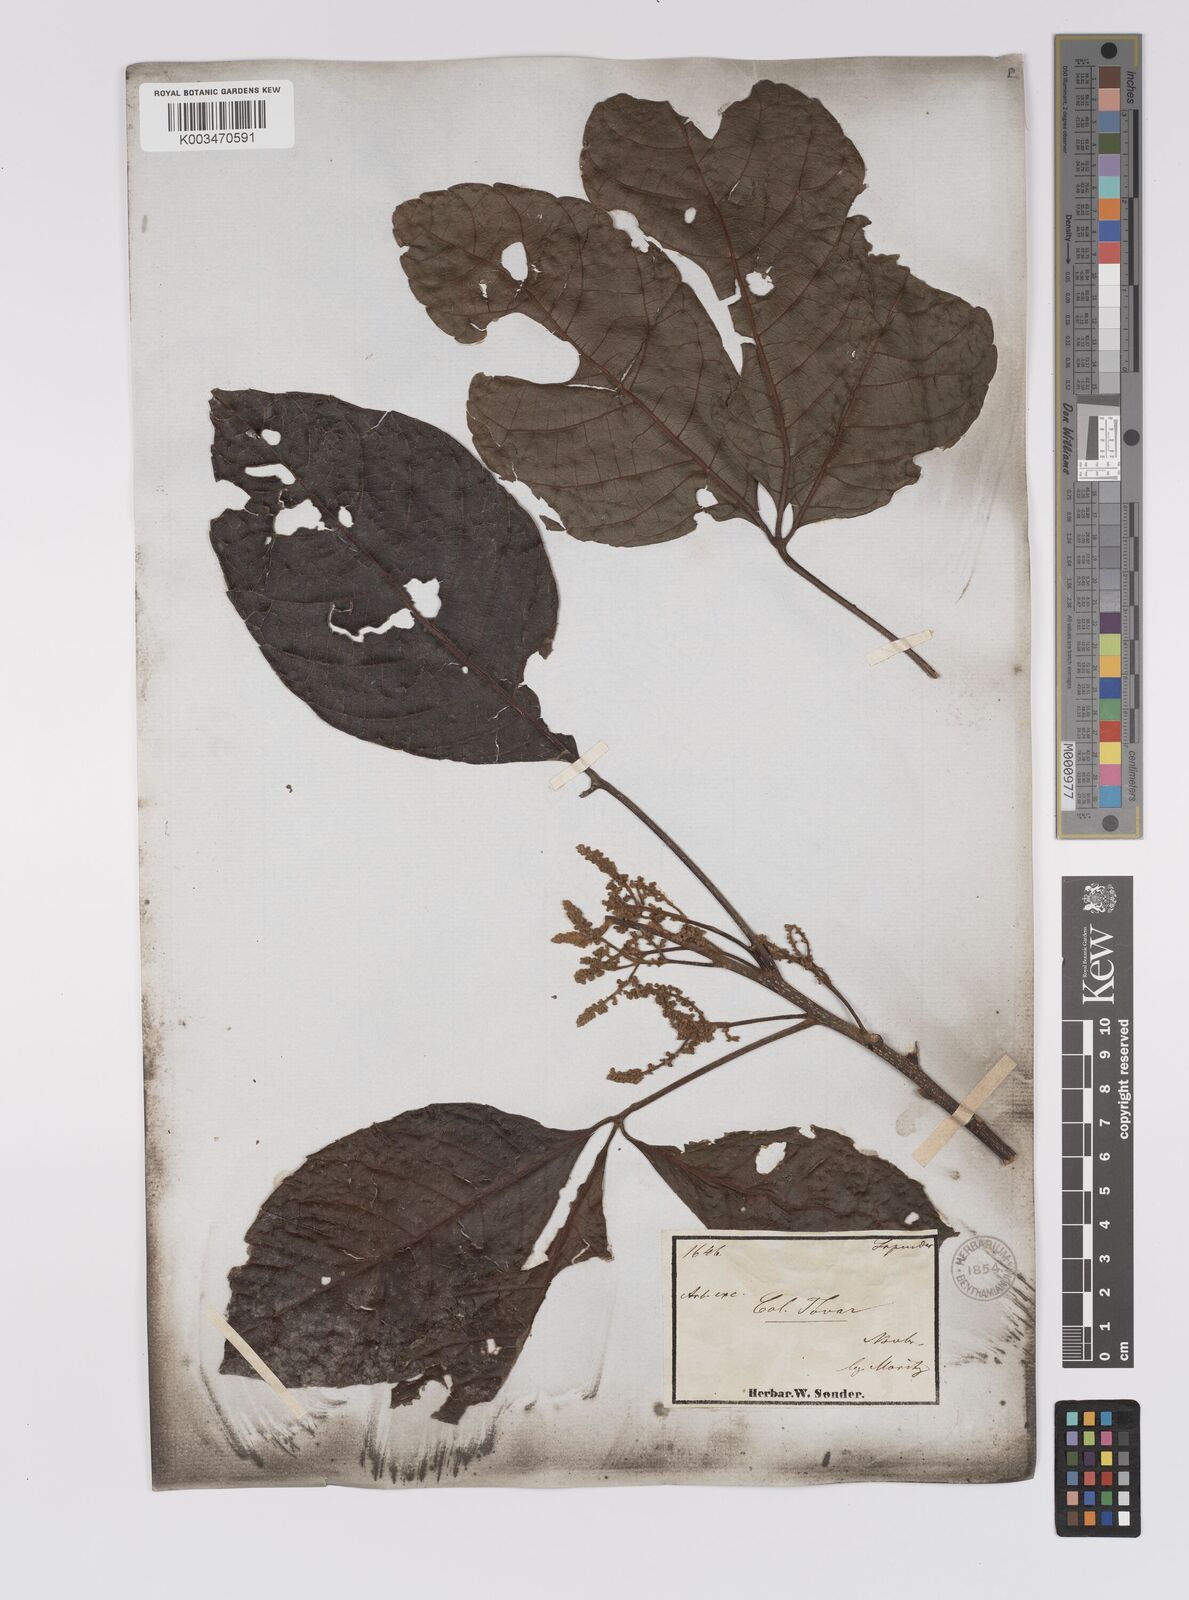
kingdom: Plantae
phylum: Tracheophyta
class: Magnoliopsida
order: Sapindales
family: Sapindaceae
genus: Allophylus
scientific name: Allophylus excelsus
